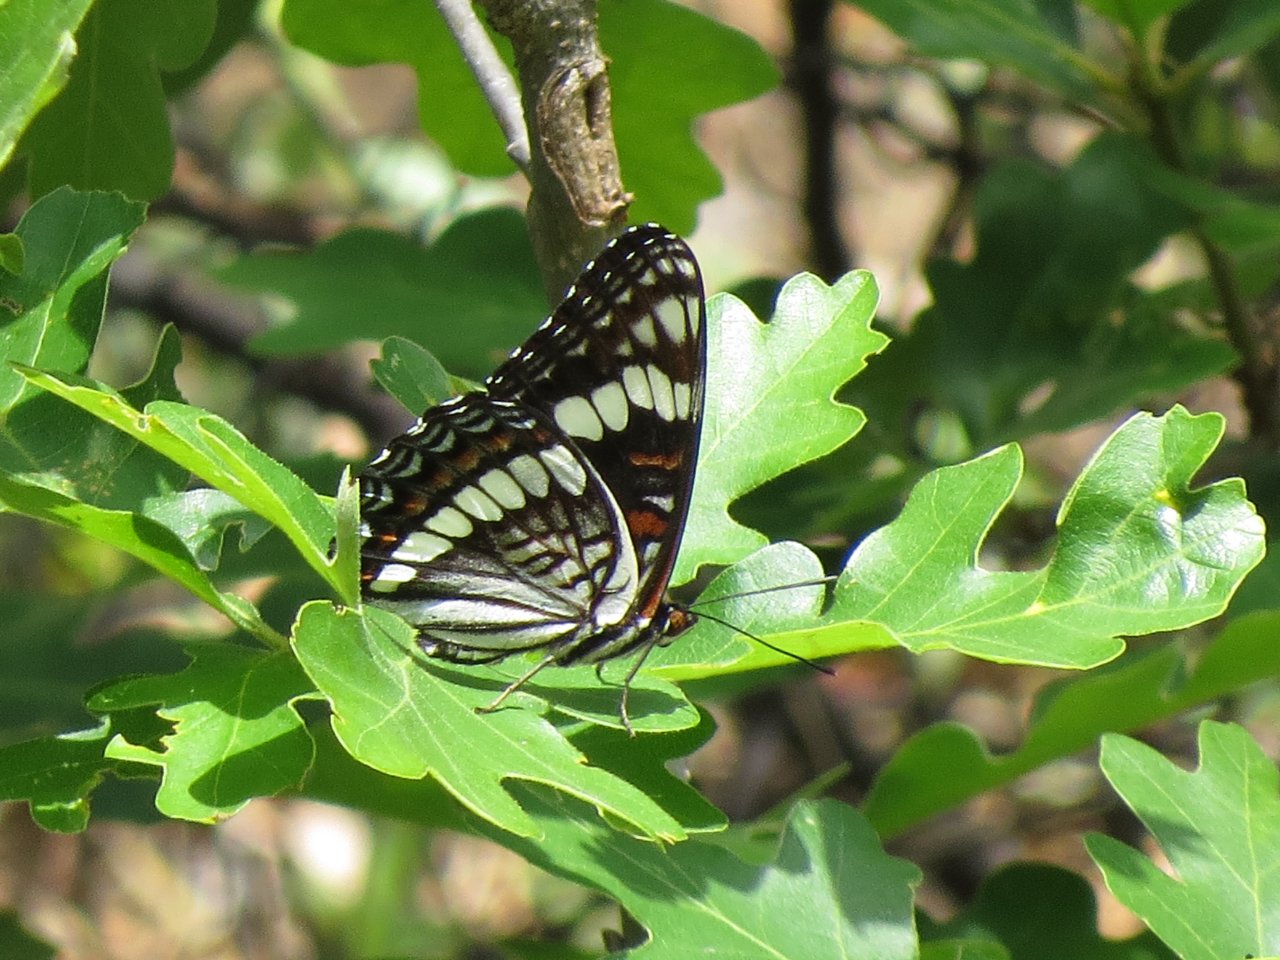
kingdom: Animalia
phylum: Arthropoda
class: Insecta
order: Lepidoptera
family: Nymphalidae
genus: Limenitis
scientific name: Limenitis weidemeyerii
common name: Weidemeyer's Admiral
